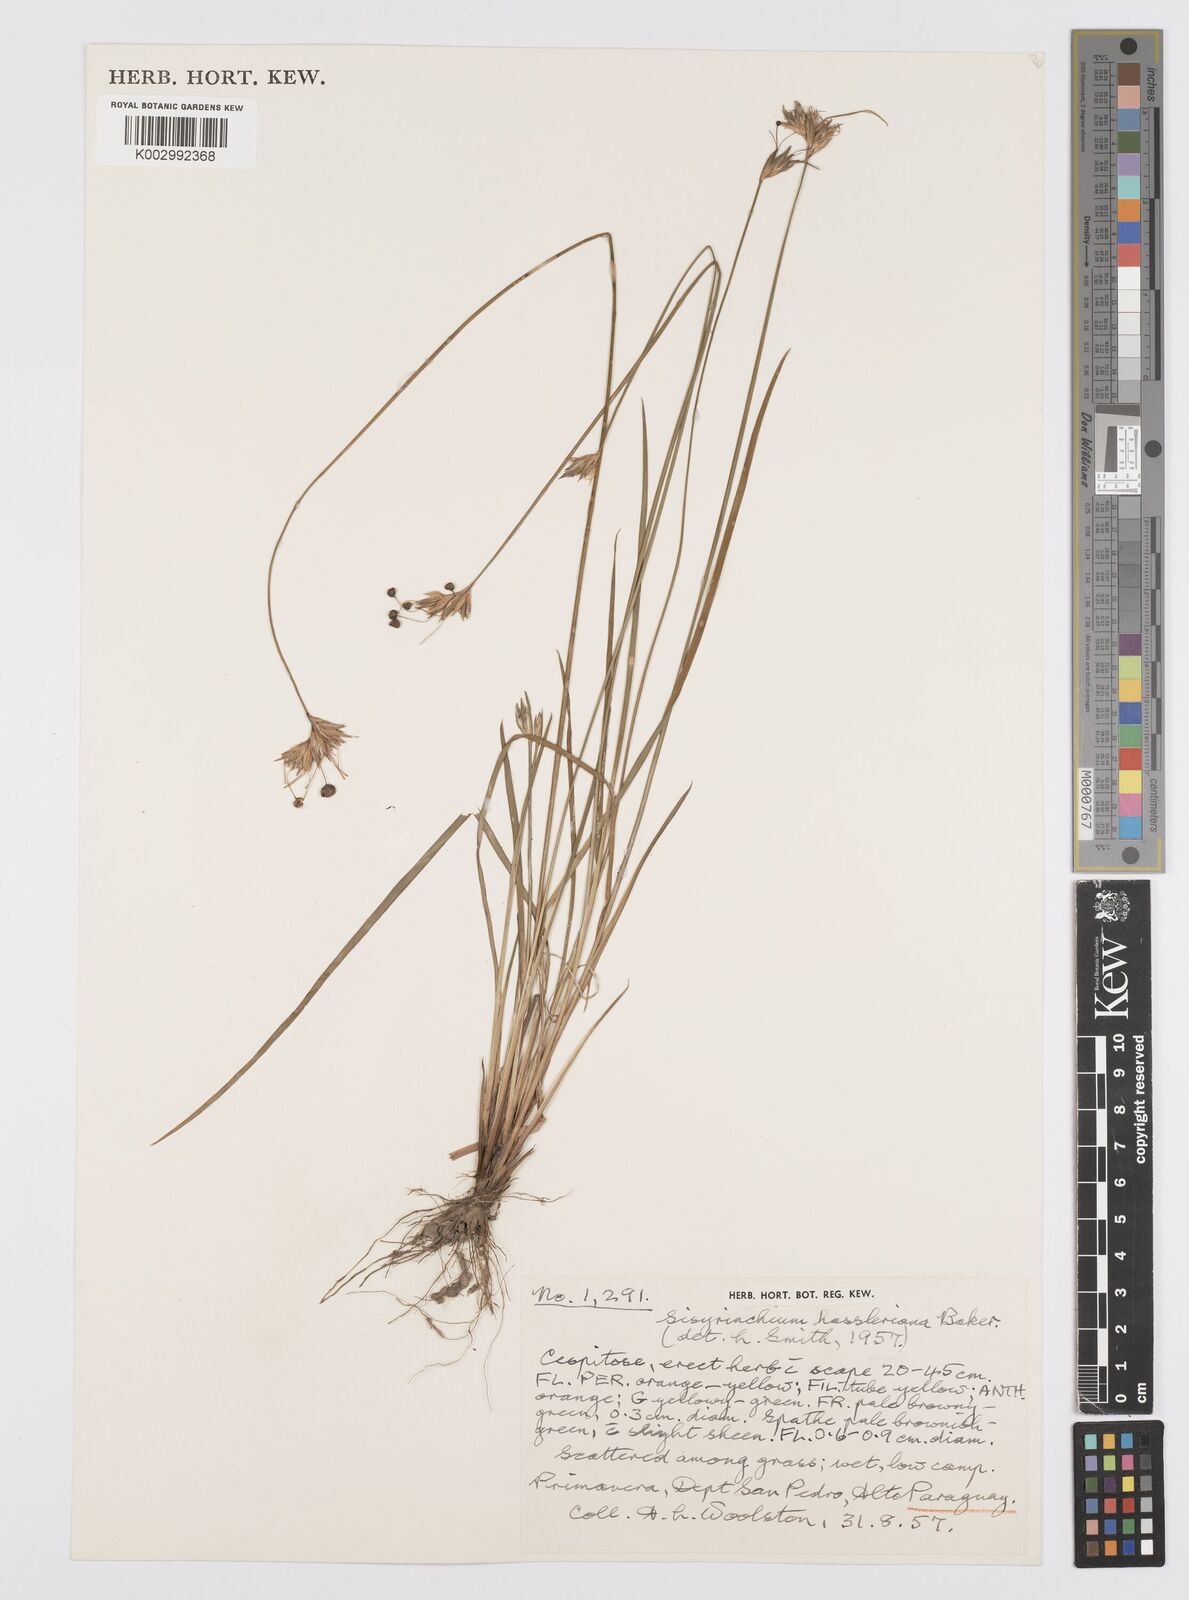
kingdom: Plantae
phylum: Tracheophyta
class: Liliopsida
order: Asparagales
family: Iridaceae
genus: Sisyrinchium
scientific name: Sisyrinchium hasslerianum
